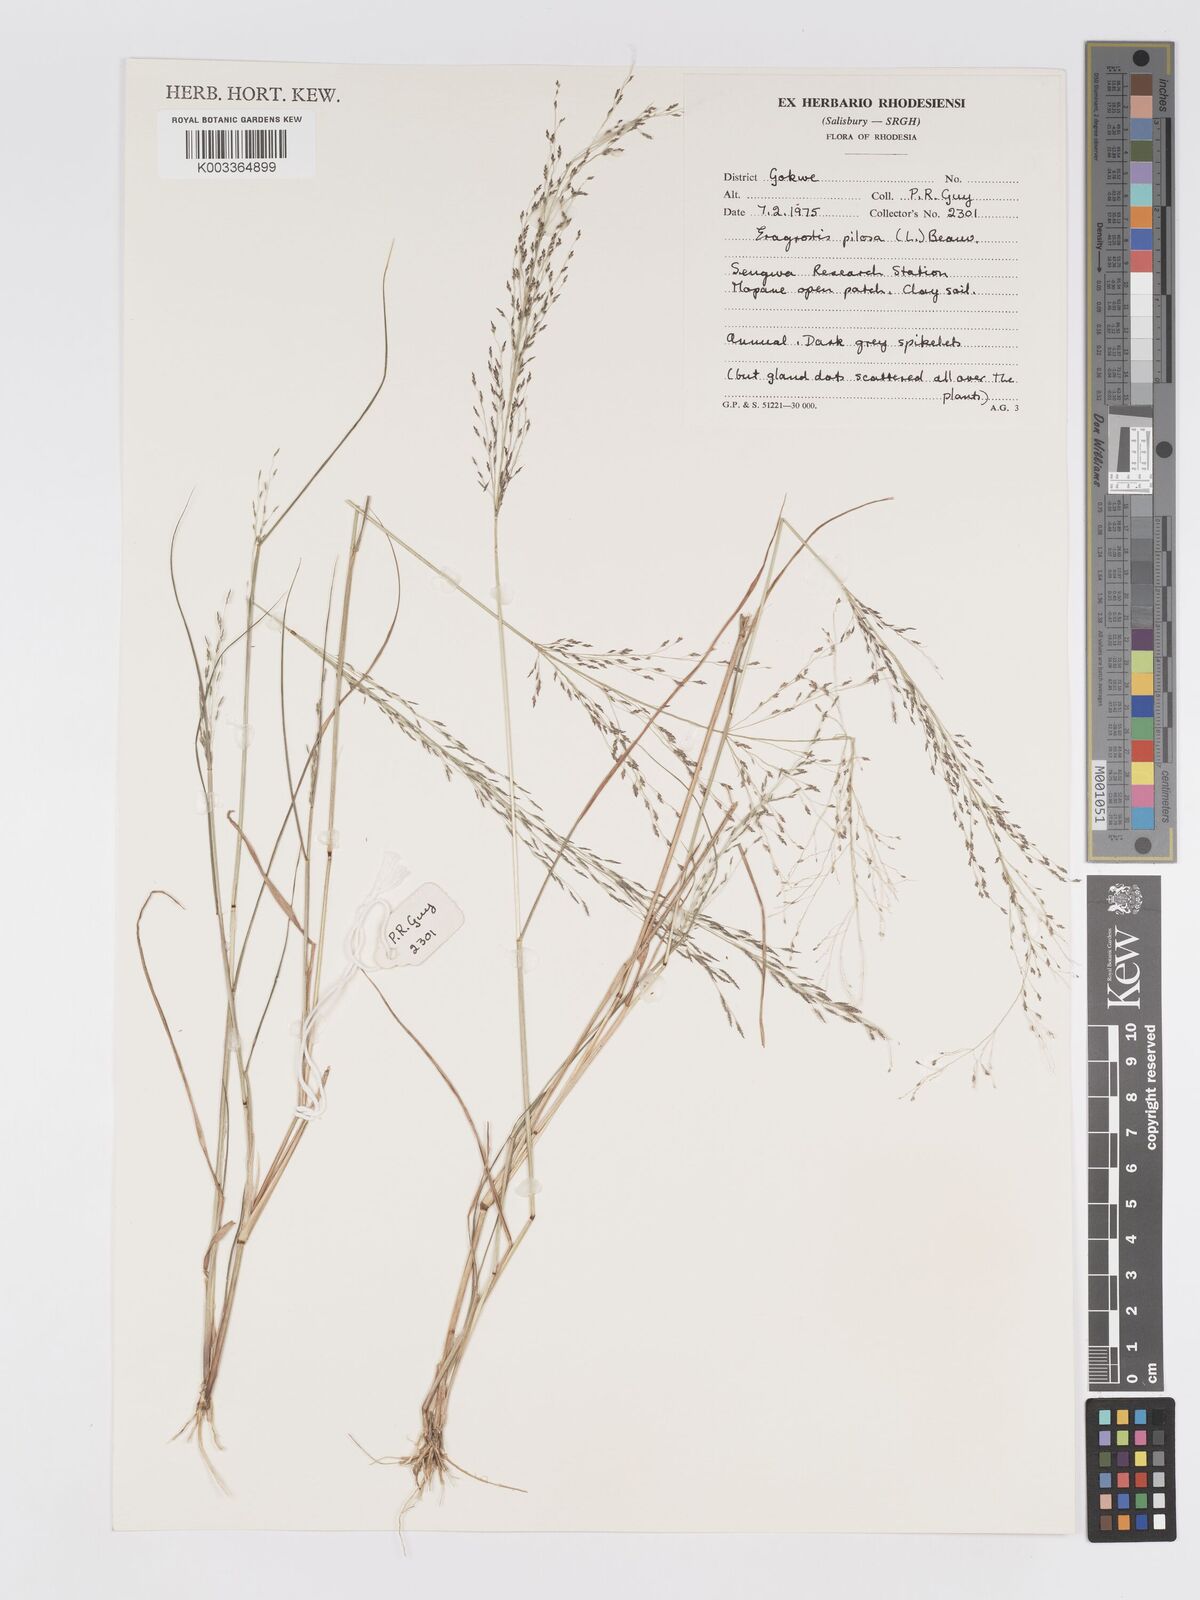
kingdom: Plantae
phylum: Tracheophyta
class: Liliopsida
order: Poales
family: Poaceae
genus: Eragrostis
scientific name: Eragrostis pilosa
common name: Indian lovegrass
